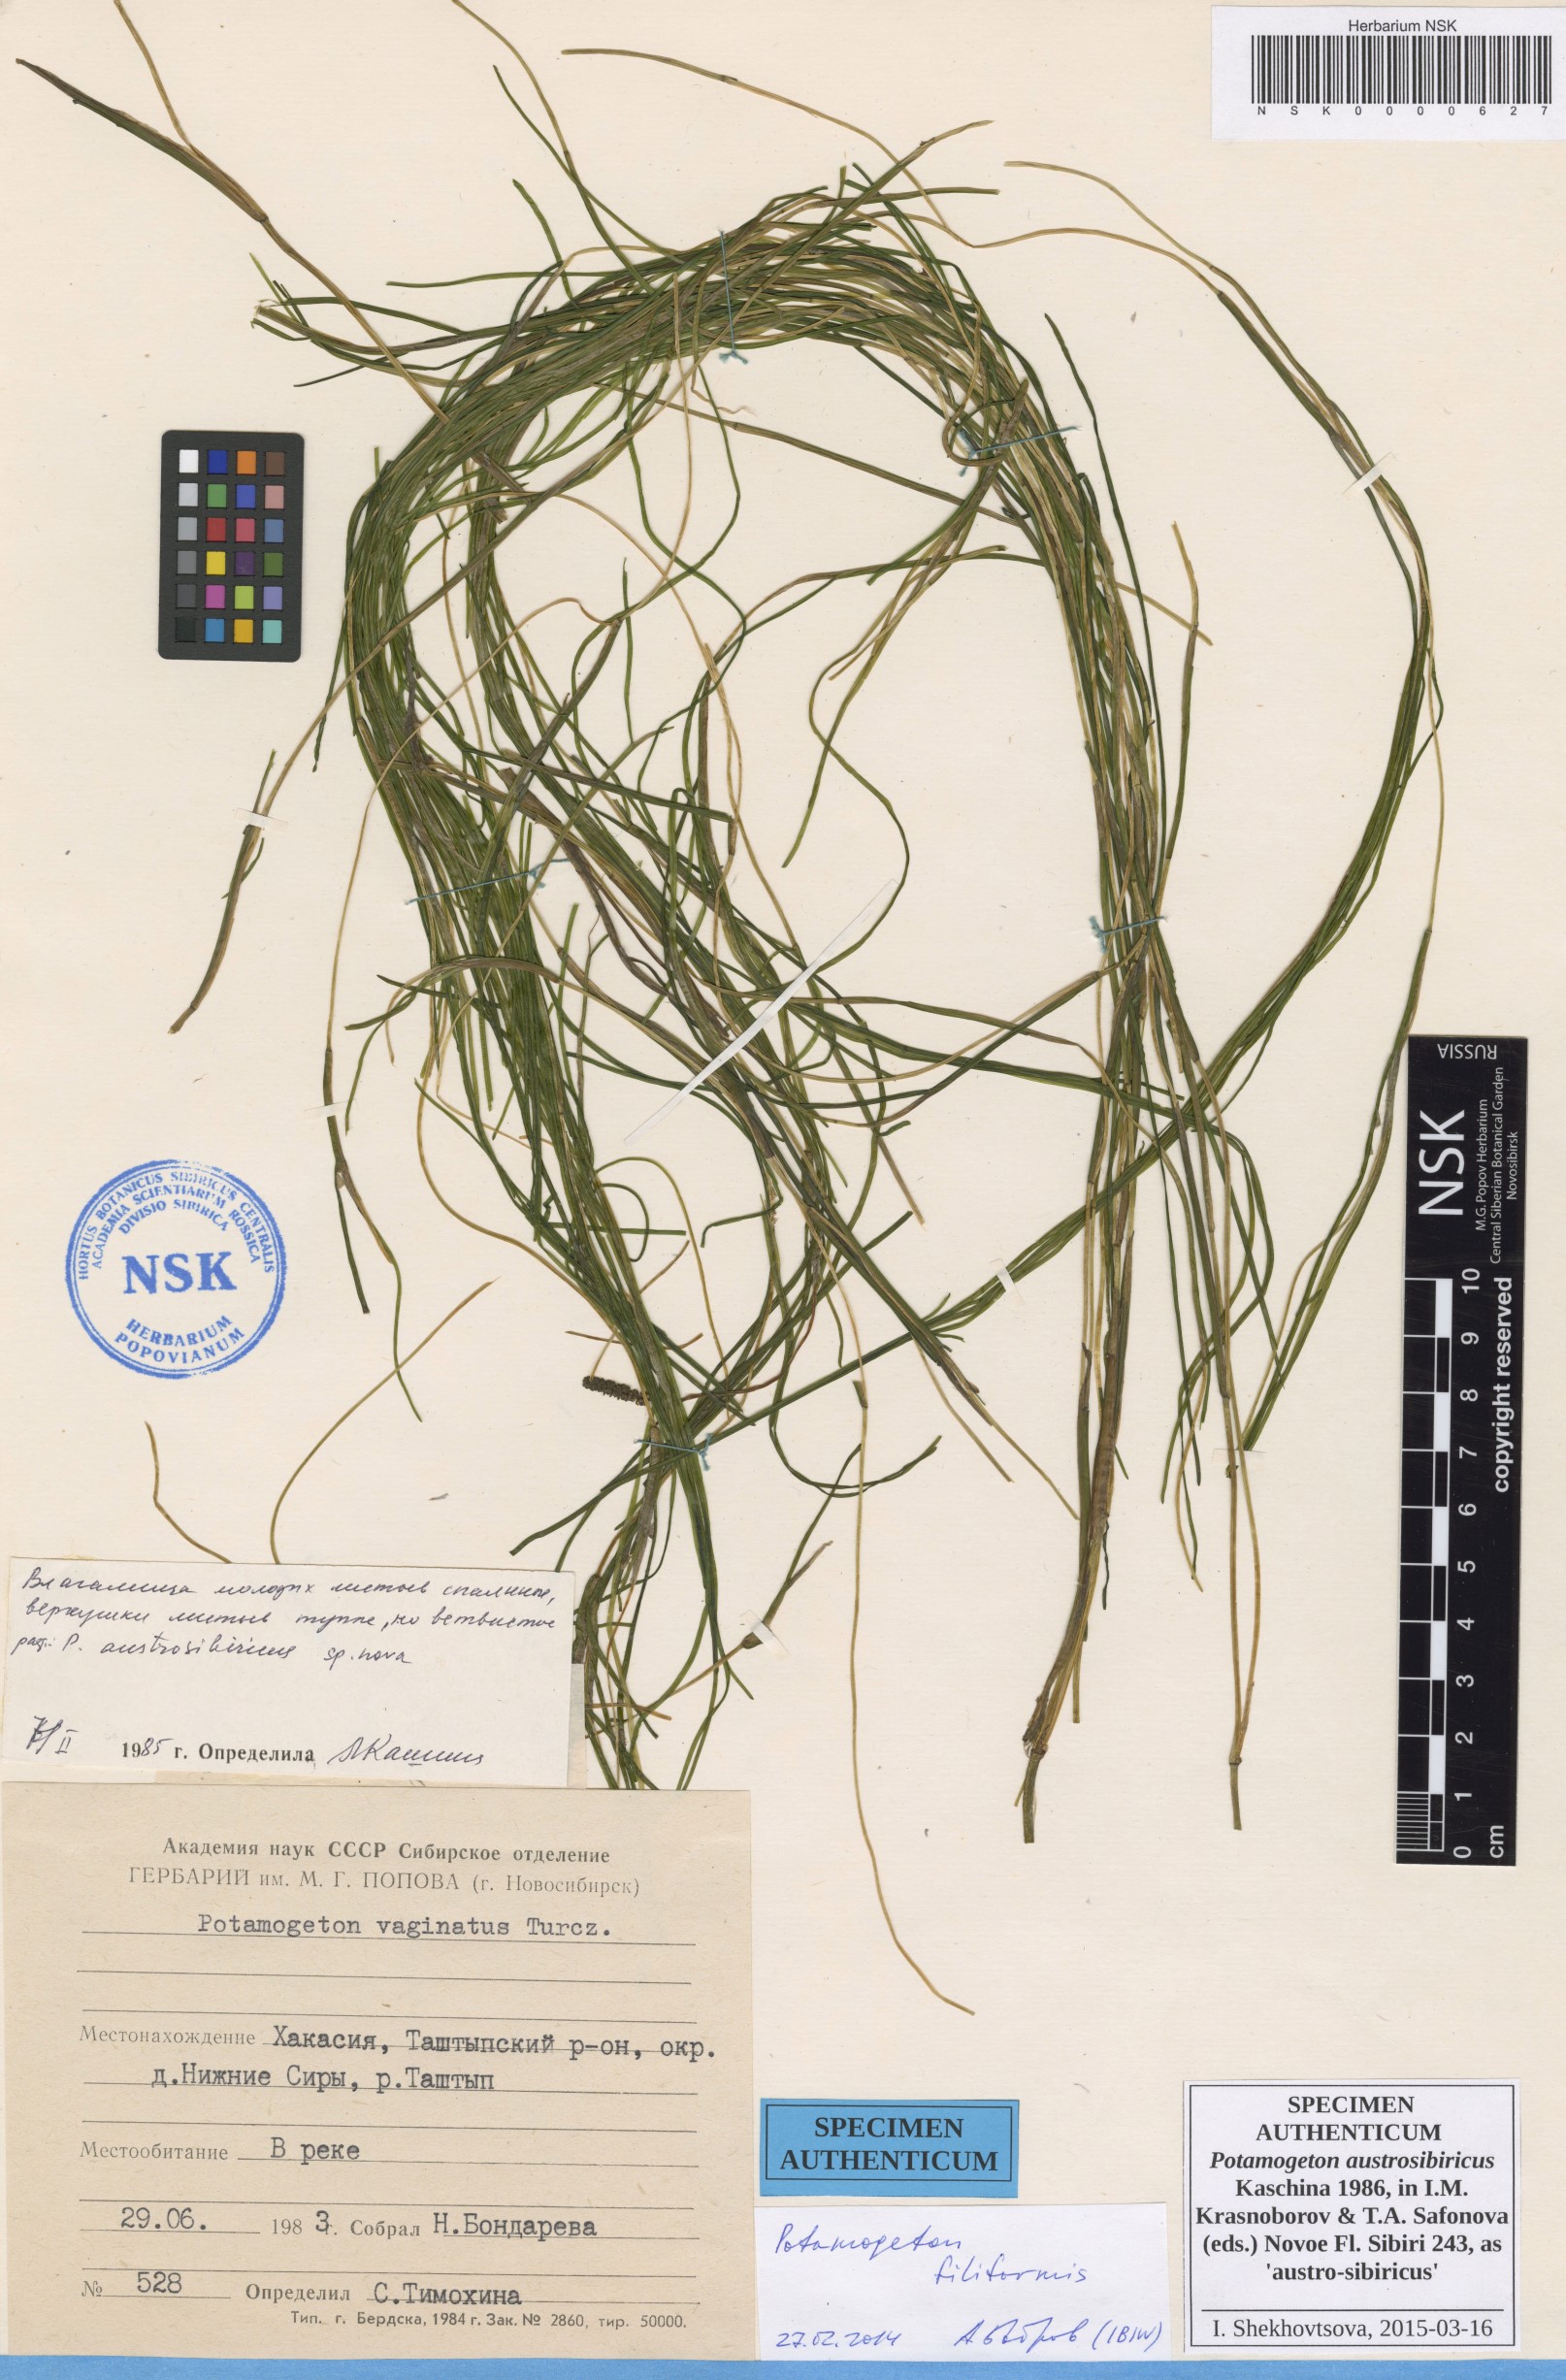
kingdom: Plantae
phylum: Tracheophyta
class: Liliopsida
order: Alismatales
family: Potamogetonaceae
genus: Stuckenia
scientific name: Stuckenia filiformis
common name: Alpine thread-leaved pondweed
